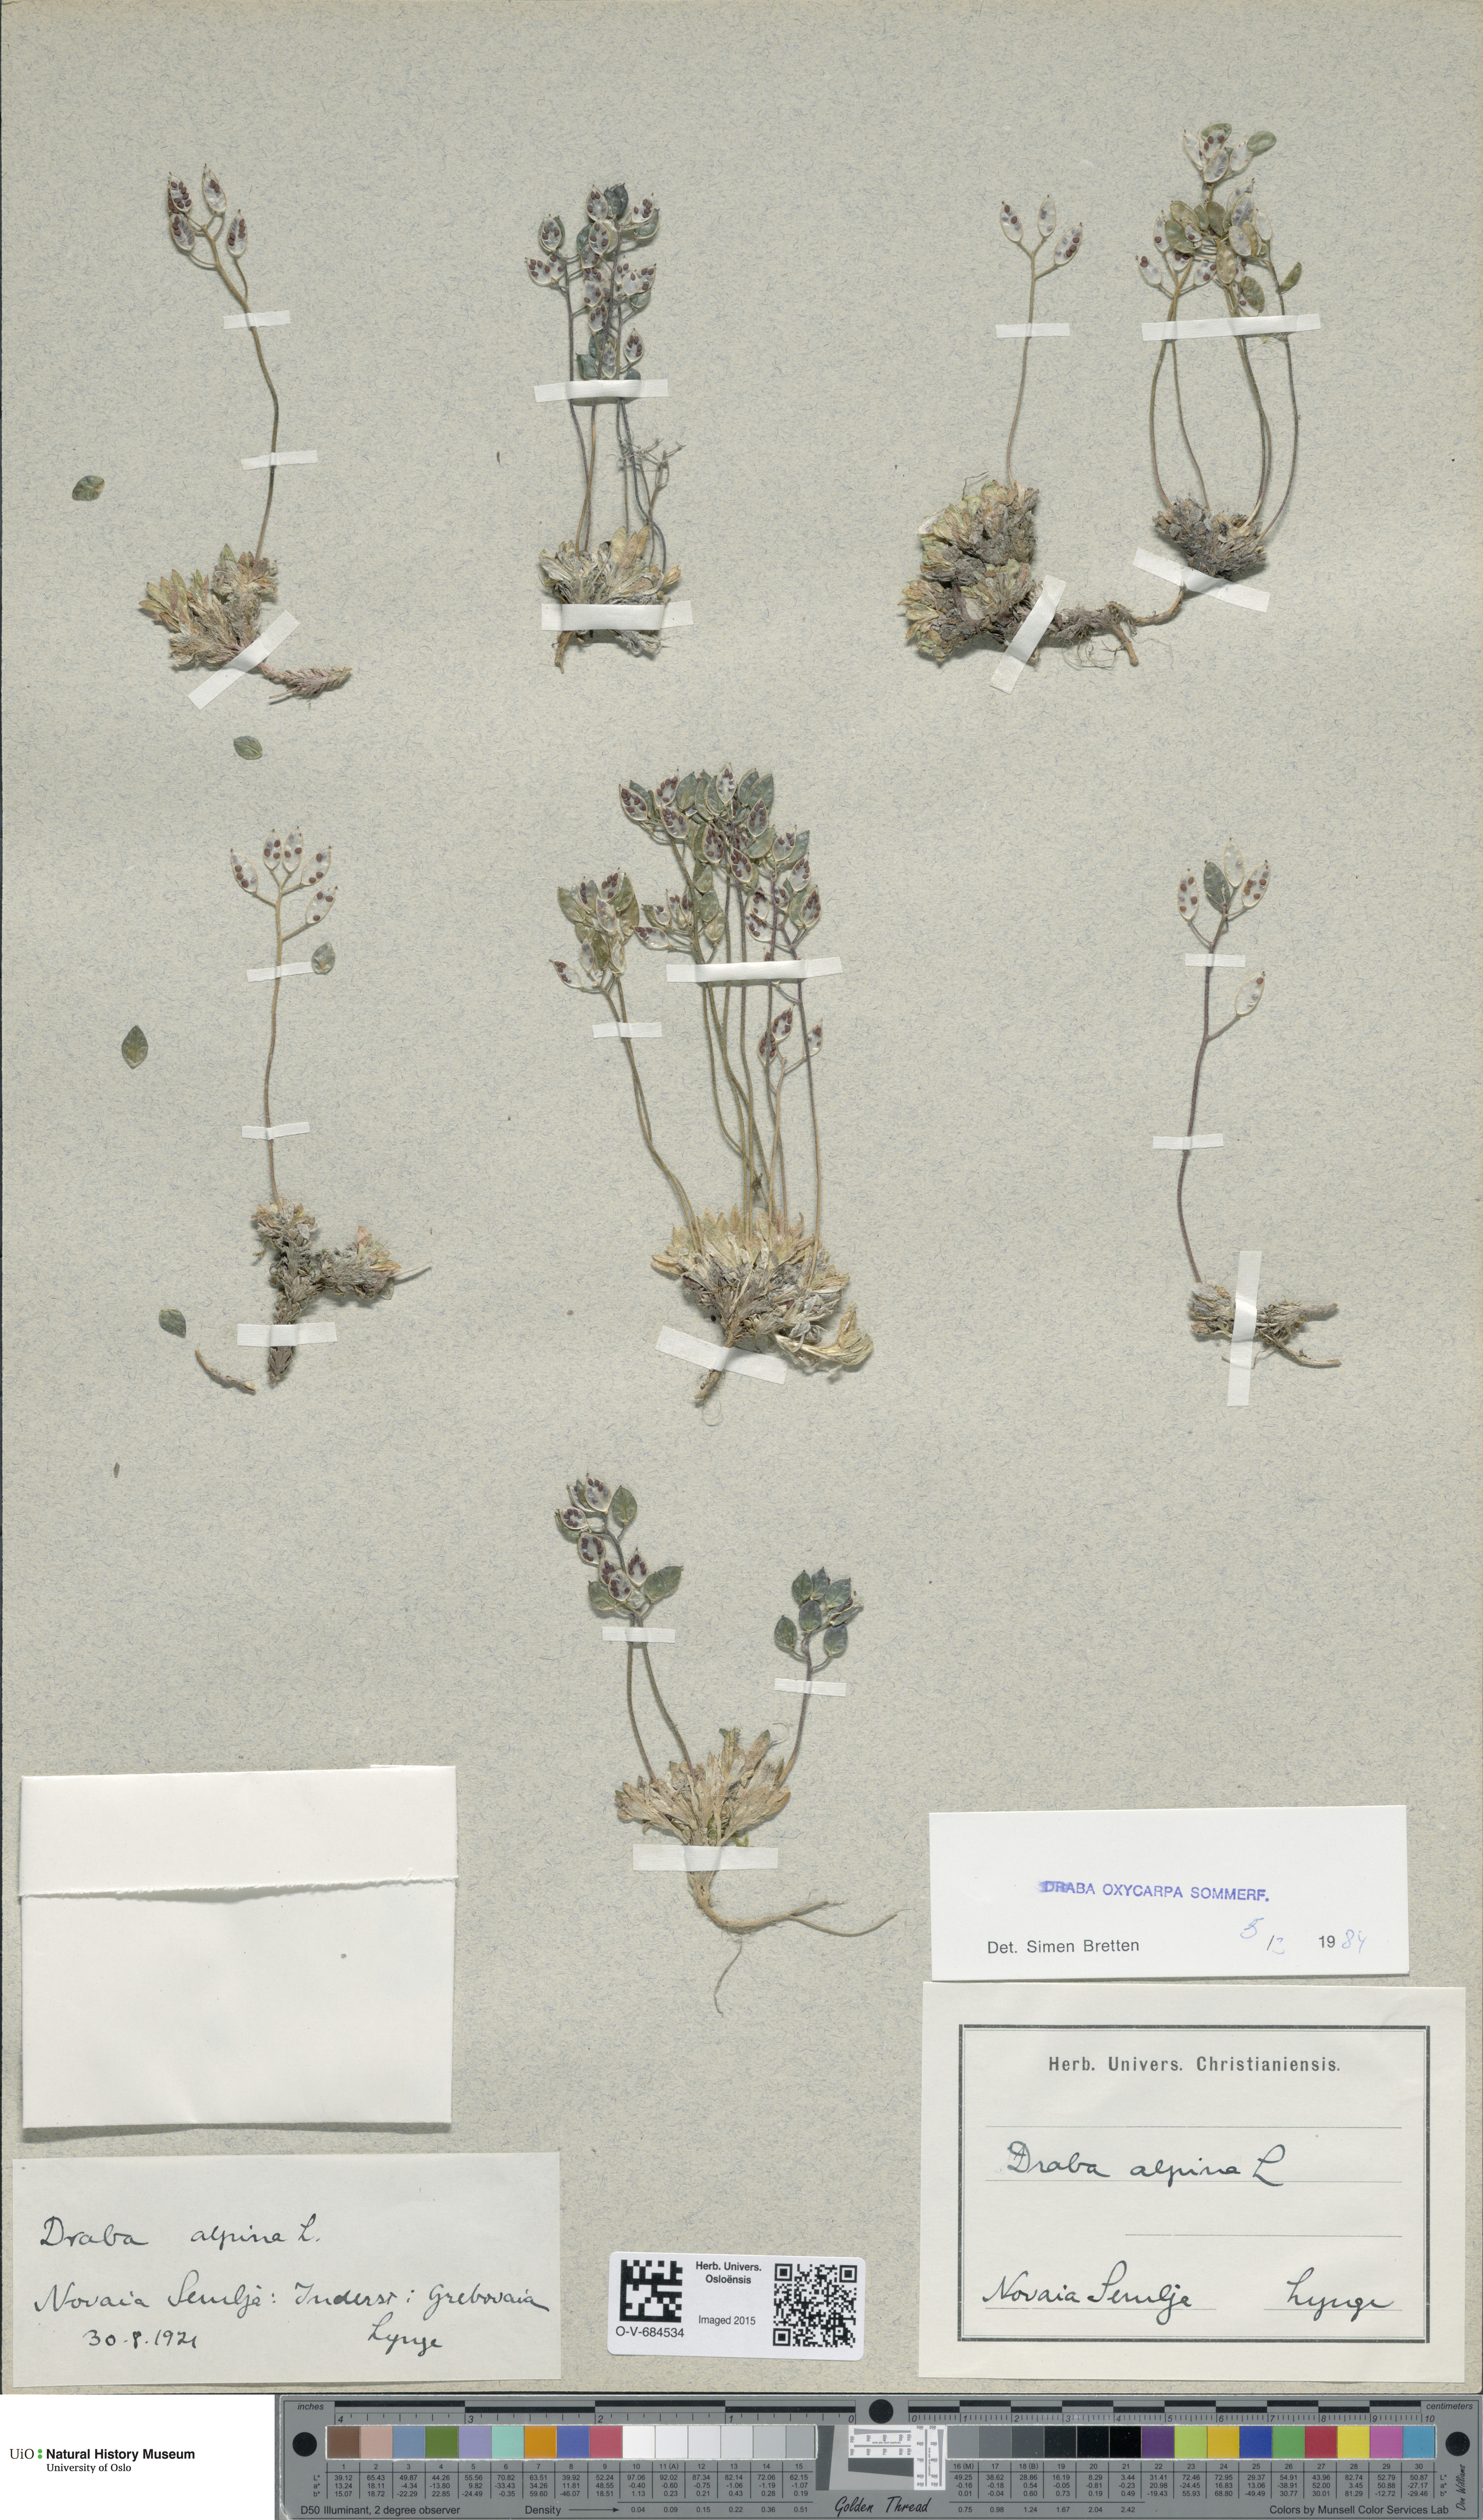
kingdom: Plantae
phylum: Tracheophyta
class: Magnoliopsida
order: Brassicales
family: Brassicaceae
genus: Draba
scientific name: Draba oxycarpa
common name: Sharp-fruited whitlow-grass
